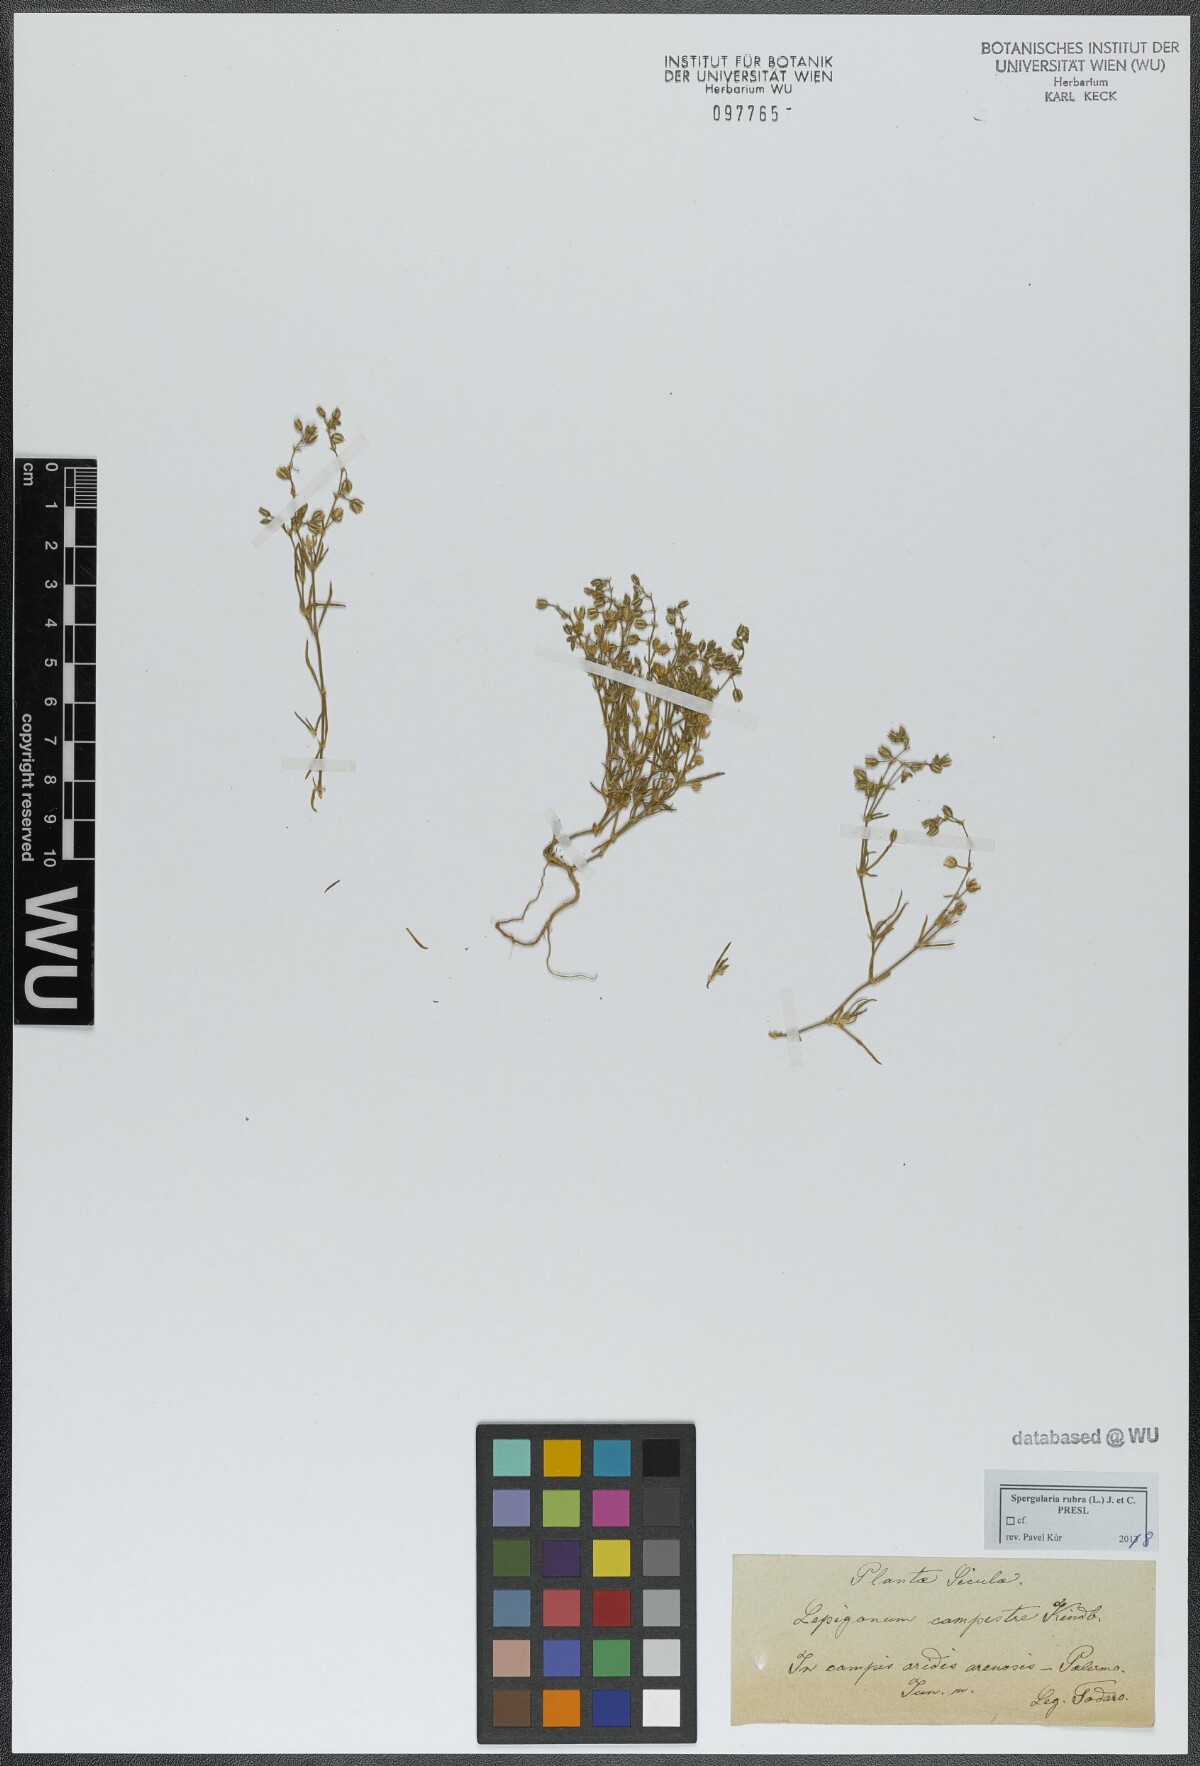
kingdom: Plantae
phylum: Tracheophyta
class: Magnoliopsida
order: Caryophyllales
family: Caryophyllaceae
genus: Spergularia
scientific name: Spergularia rubra
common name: Red sand-spurrey
